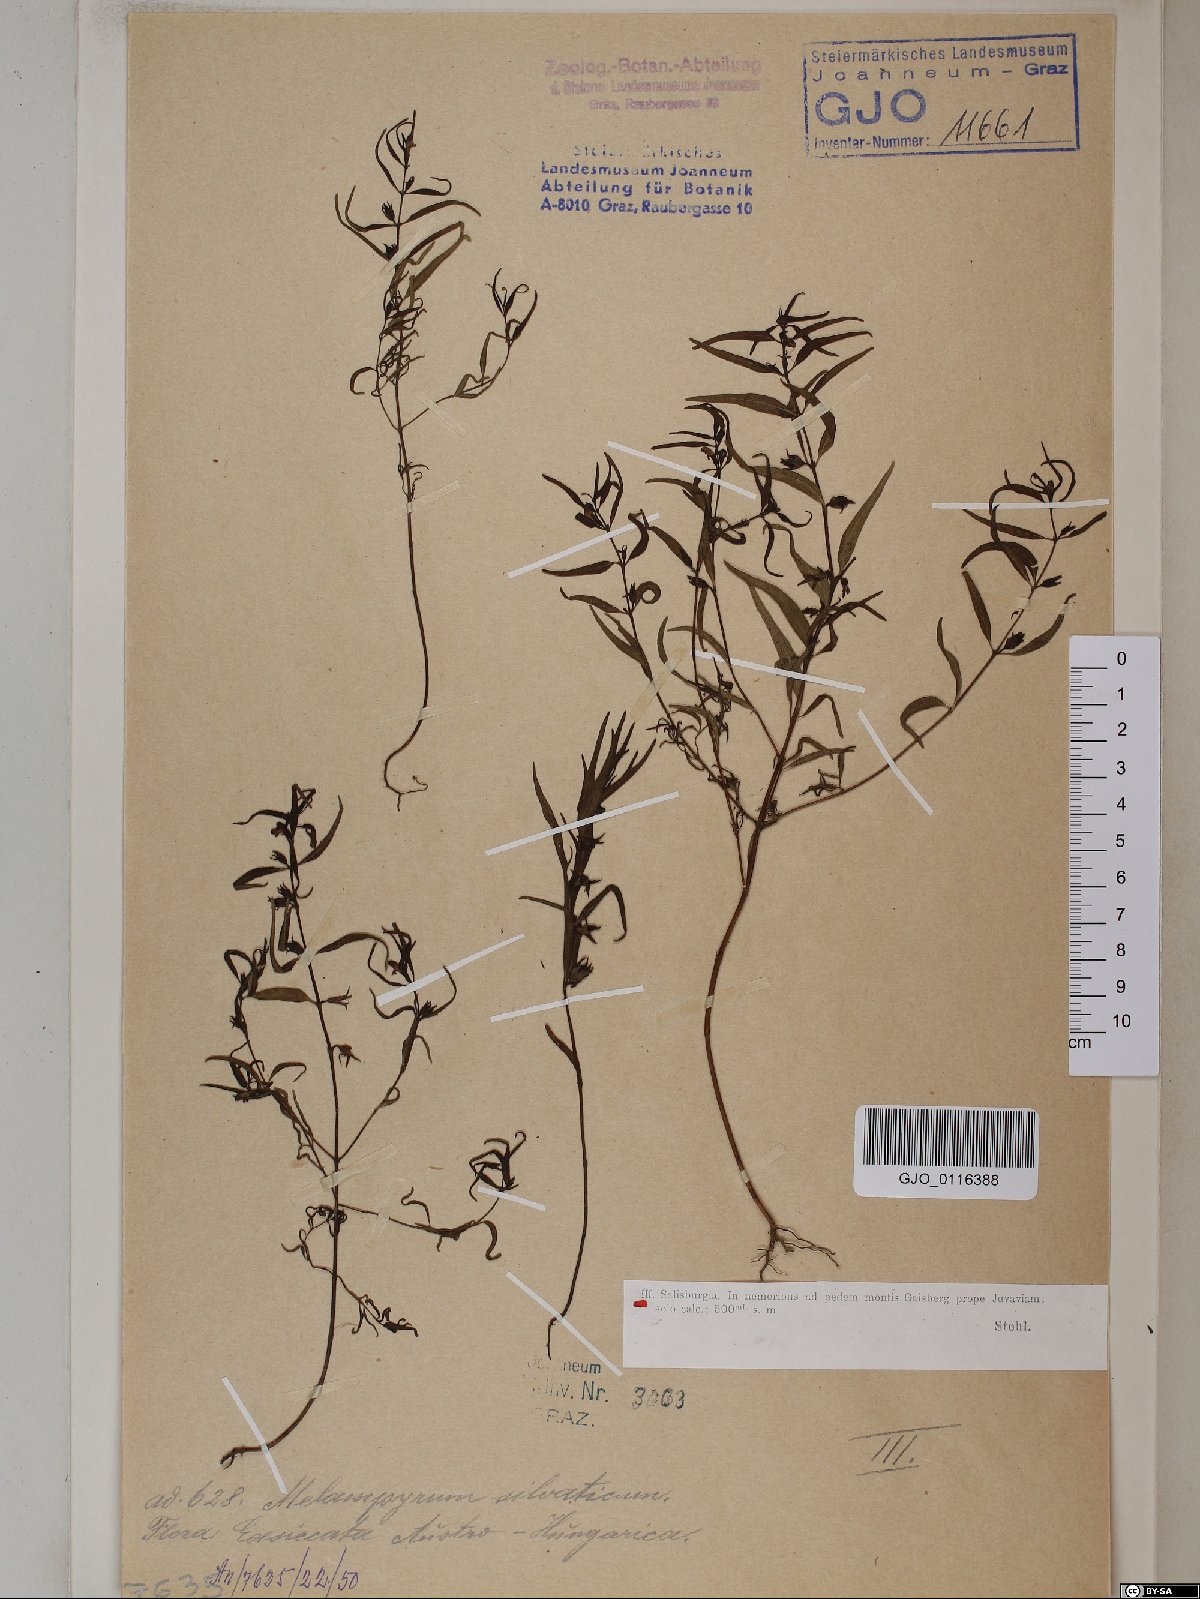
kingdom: Plantae
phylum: Tracheophyta
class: Magnoliopsida
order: Lamiales
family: Orobanchaceae
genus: Melampyrum
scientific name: Melampyrum sylvaticum
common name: Small cow-wheat
